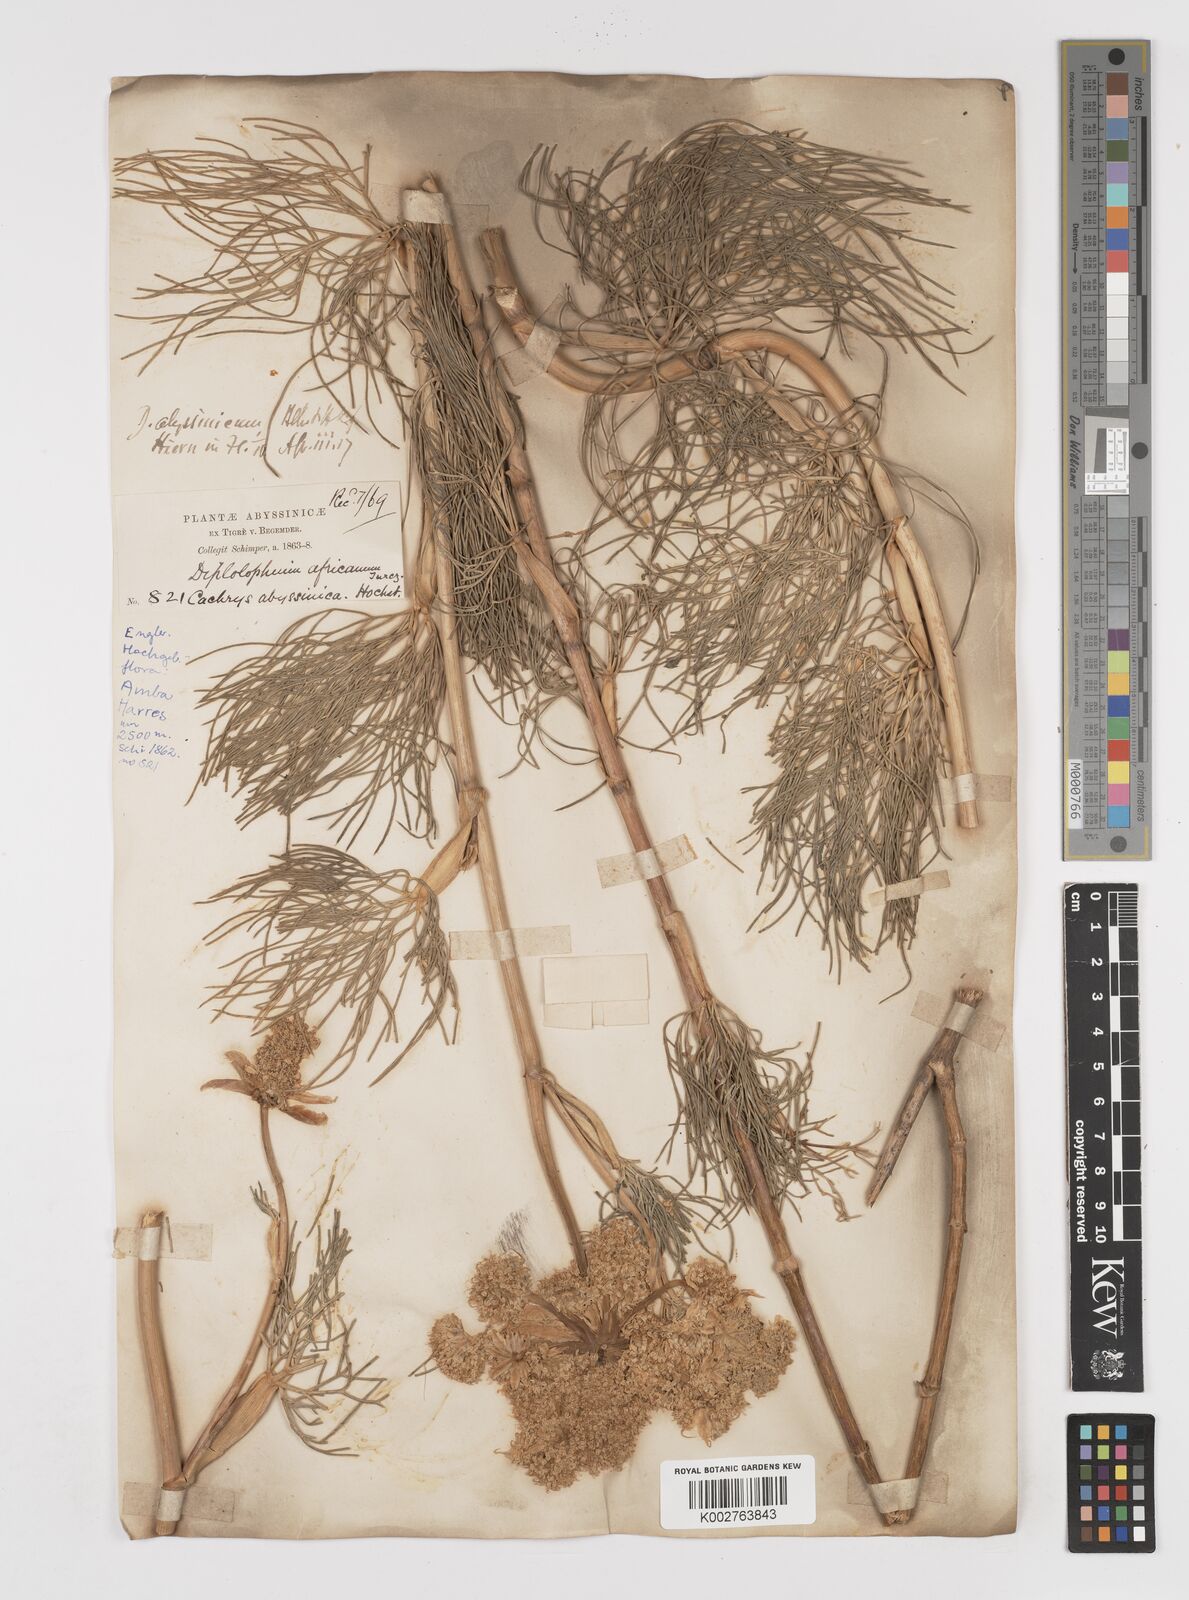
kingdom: Plantae
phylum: Tracheophyta
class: Magnoliopsida
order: Apiales
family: Apiaceae
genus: Diplolophium
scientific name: Diplolophium africanum
